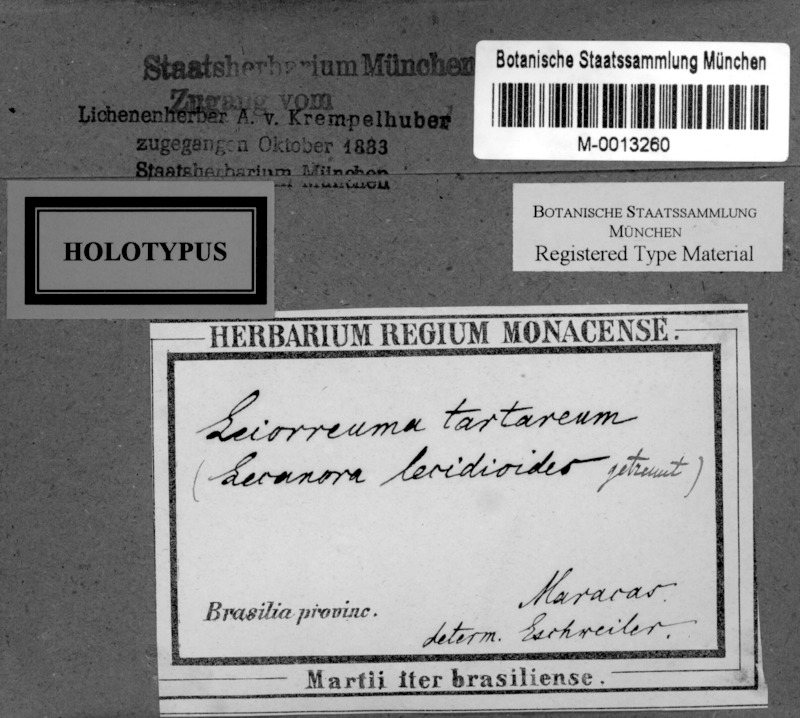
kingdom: Fungi
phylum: Ascomycota
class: Arthoniomycetes
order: Arthoniales
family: Opegraphaceae
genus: Opegrapha
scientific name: Opegrapha
